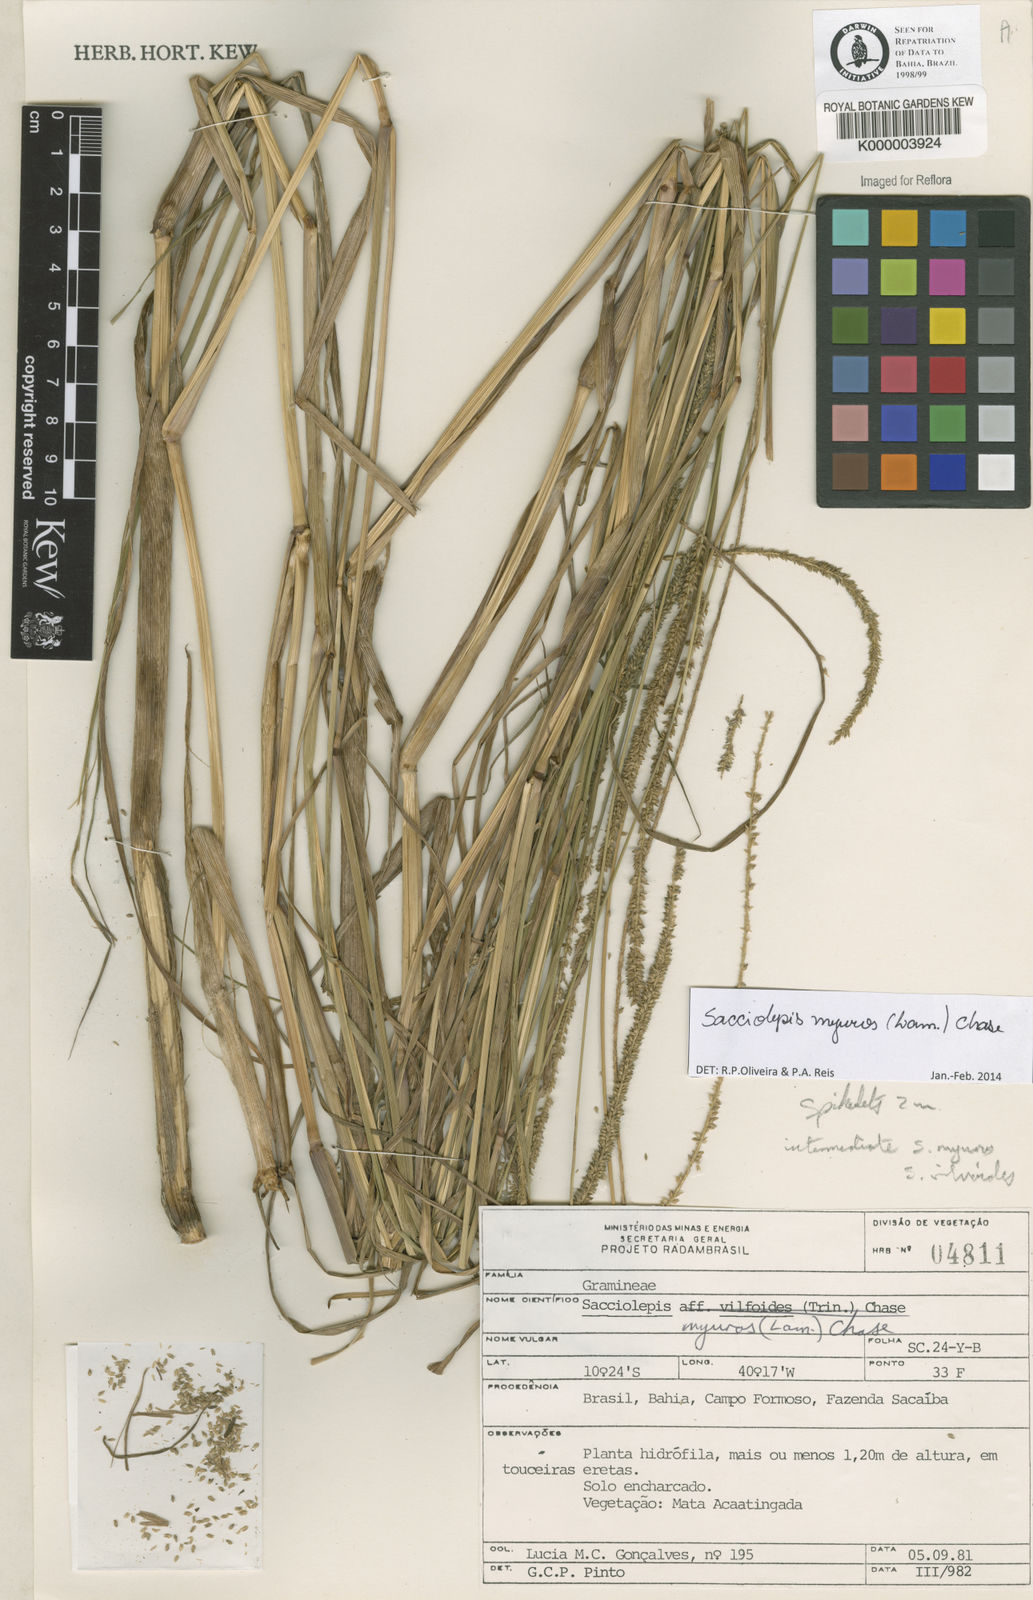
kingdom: Plantae
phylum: Tracheophyta
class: Liliopsida
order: Poales
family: Poaceae
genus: Sacciolepis
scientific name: Sacciolepis myuros
